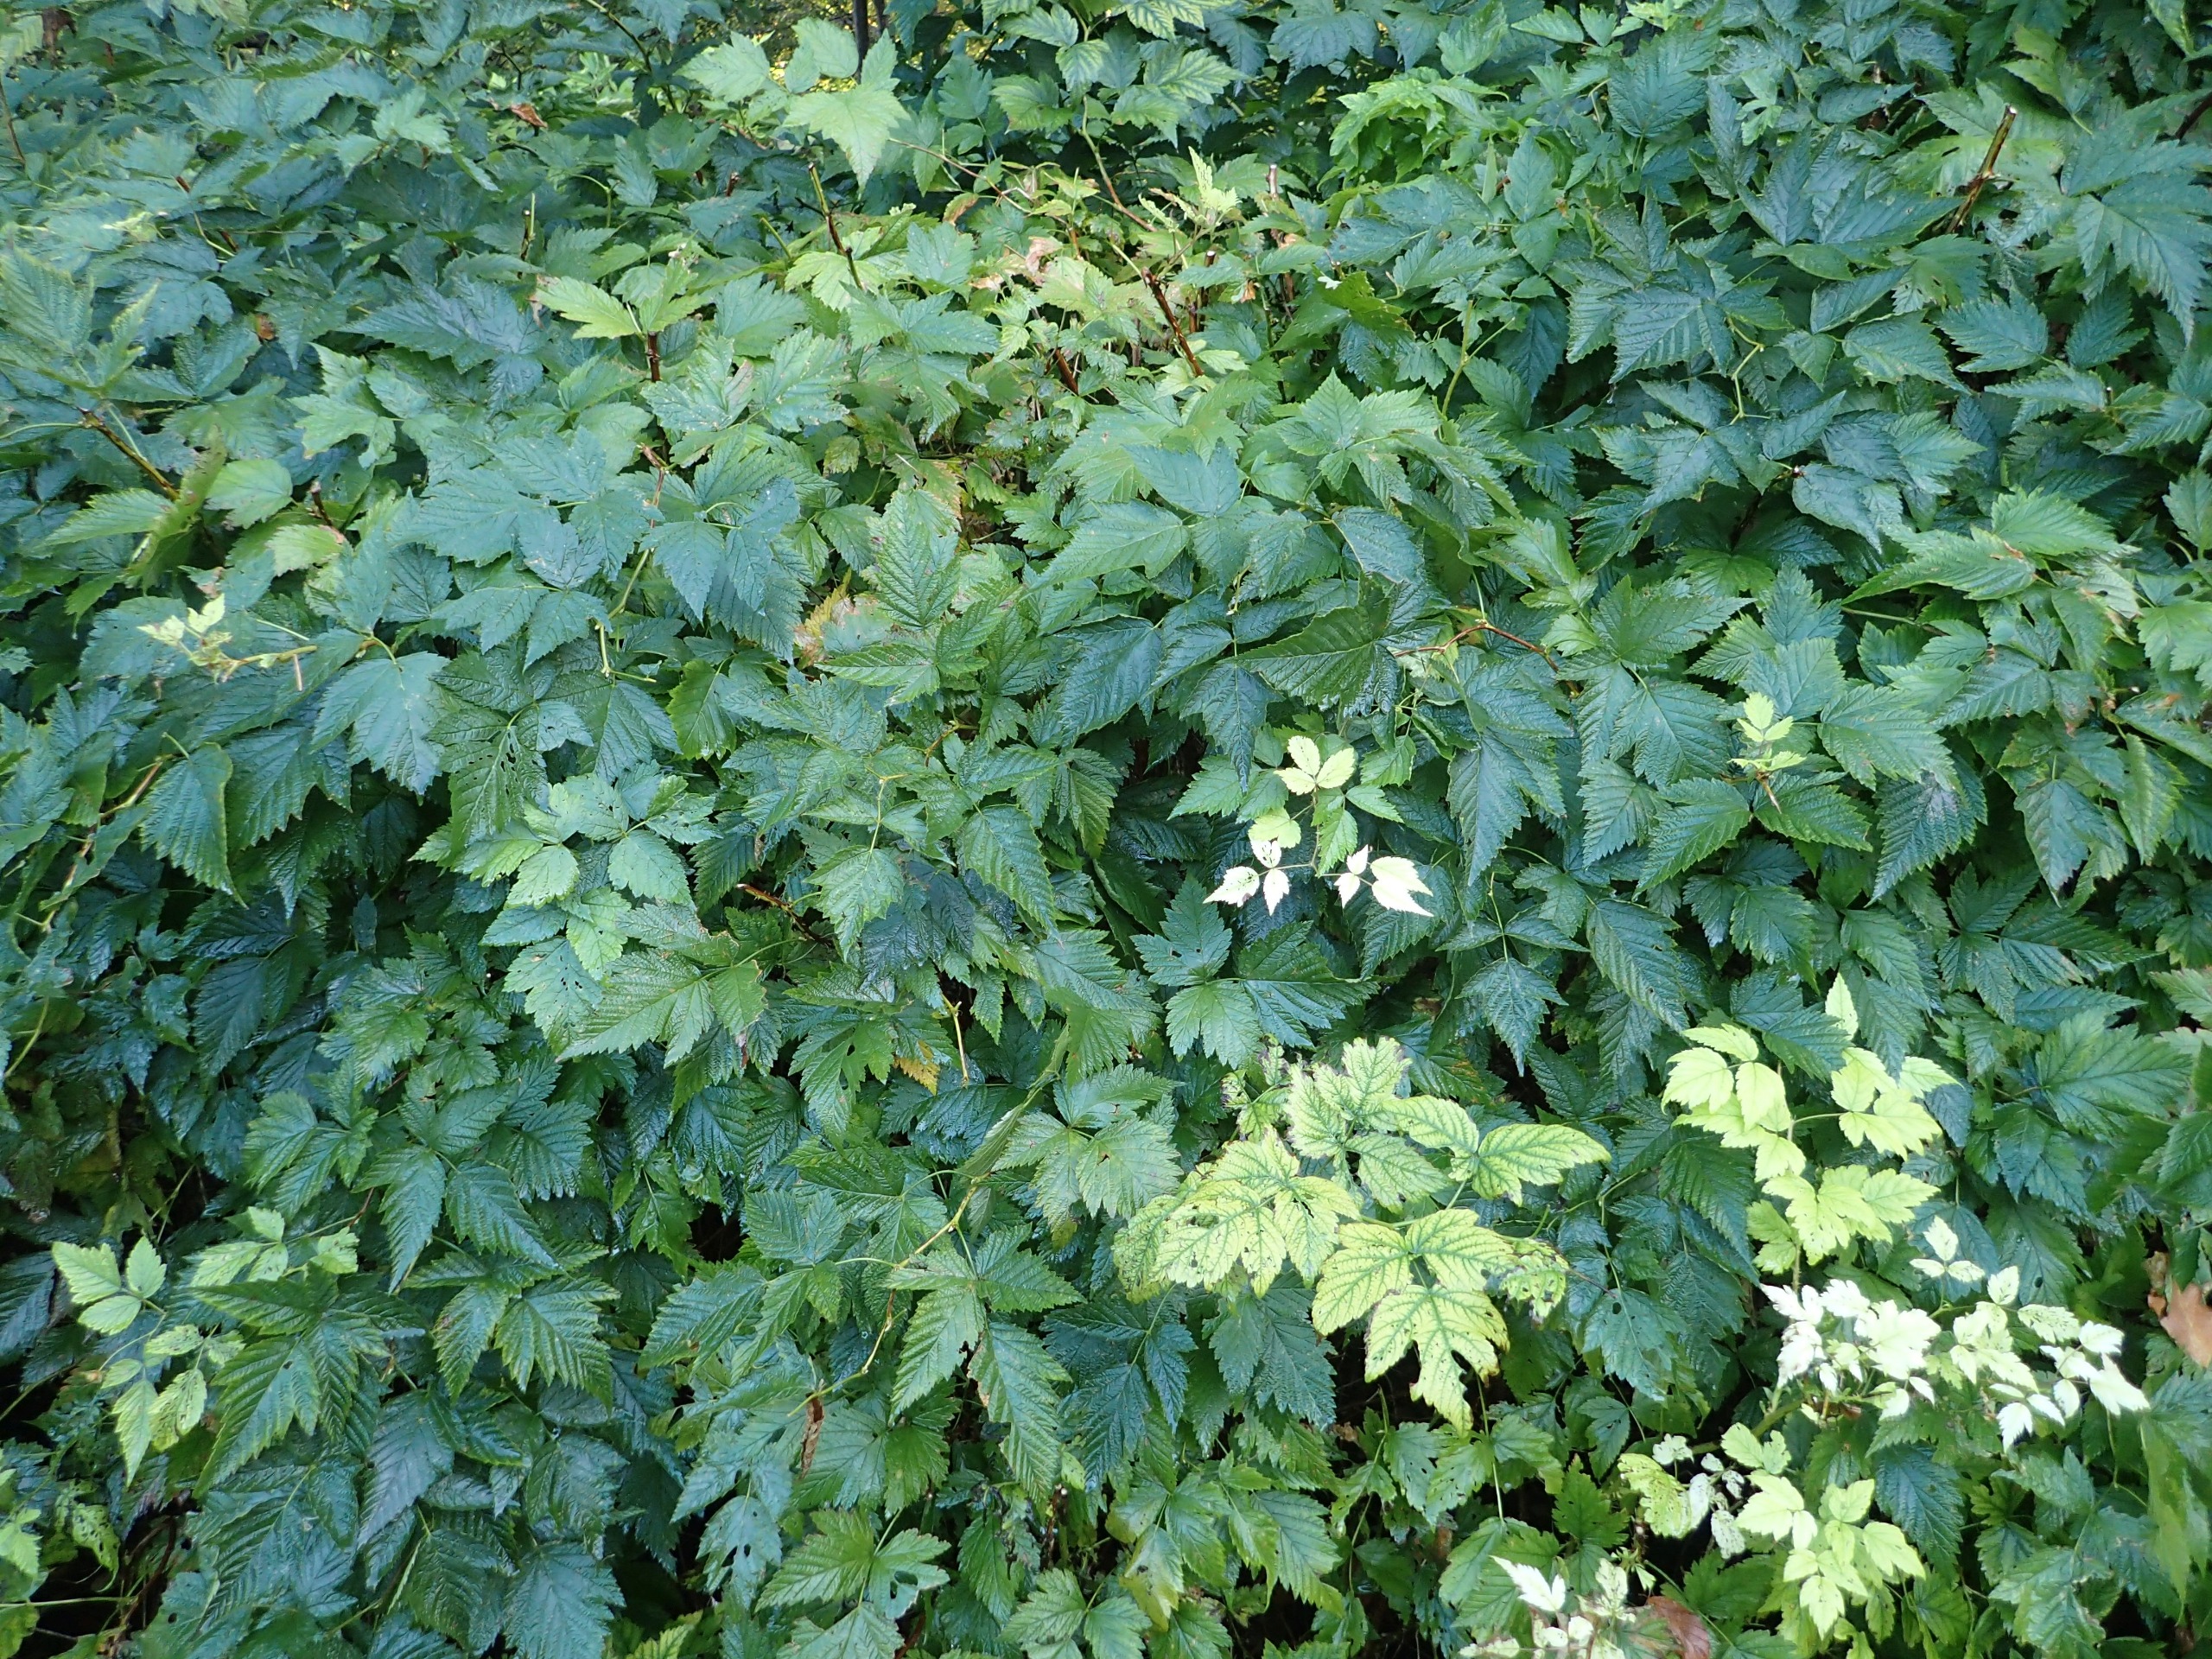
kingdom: Plantae
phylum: Tracheophyta
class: Magnoliopsida
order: Rosales
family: Rosaceae
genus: Rubus
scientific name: Rubus spectabilis
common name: Laksebær
